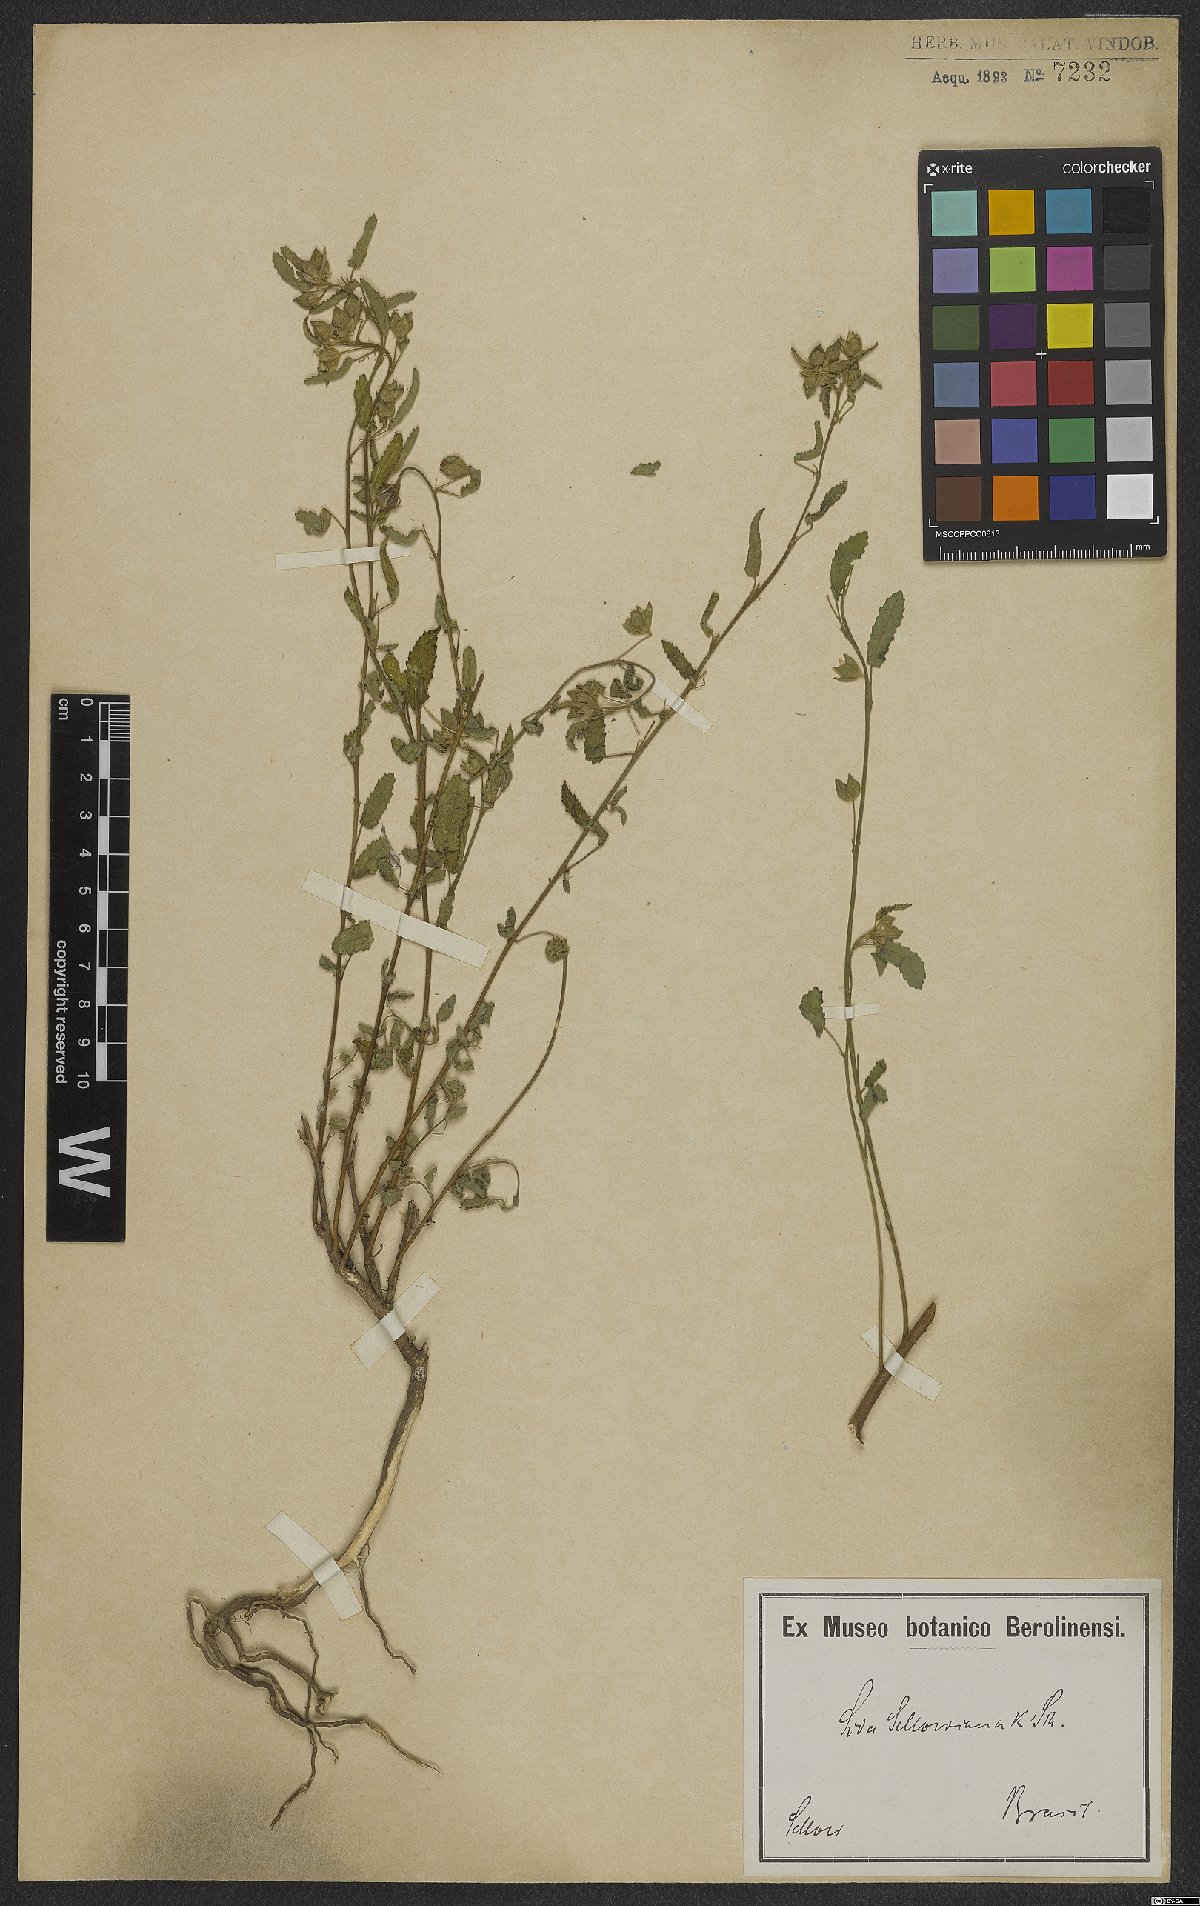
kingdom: Plantae
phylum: Tracheophyta
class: Magnoliopsida
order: Malvales
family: Malvaceae
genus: Callianthe
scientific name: Callianthe sellowiana
